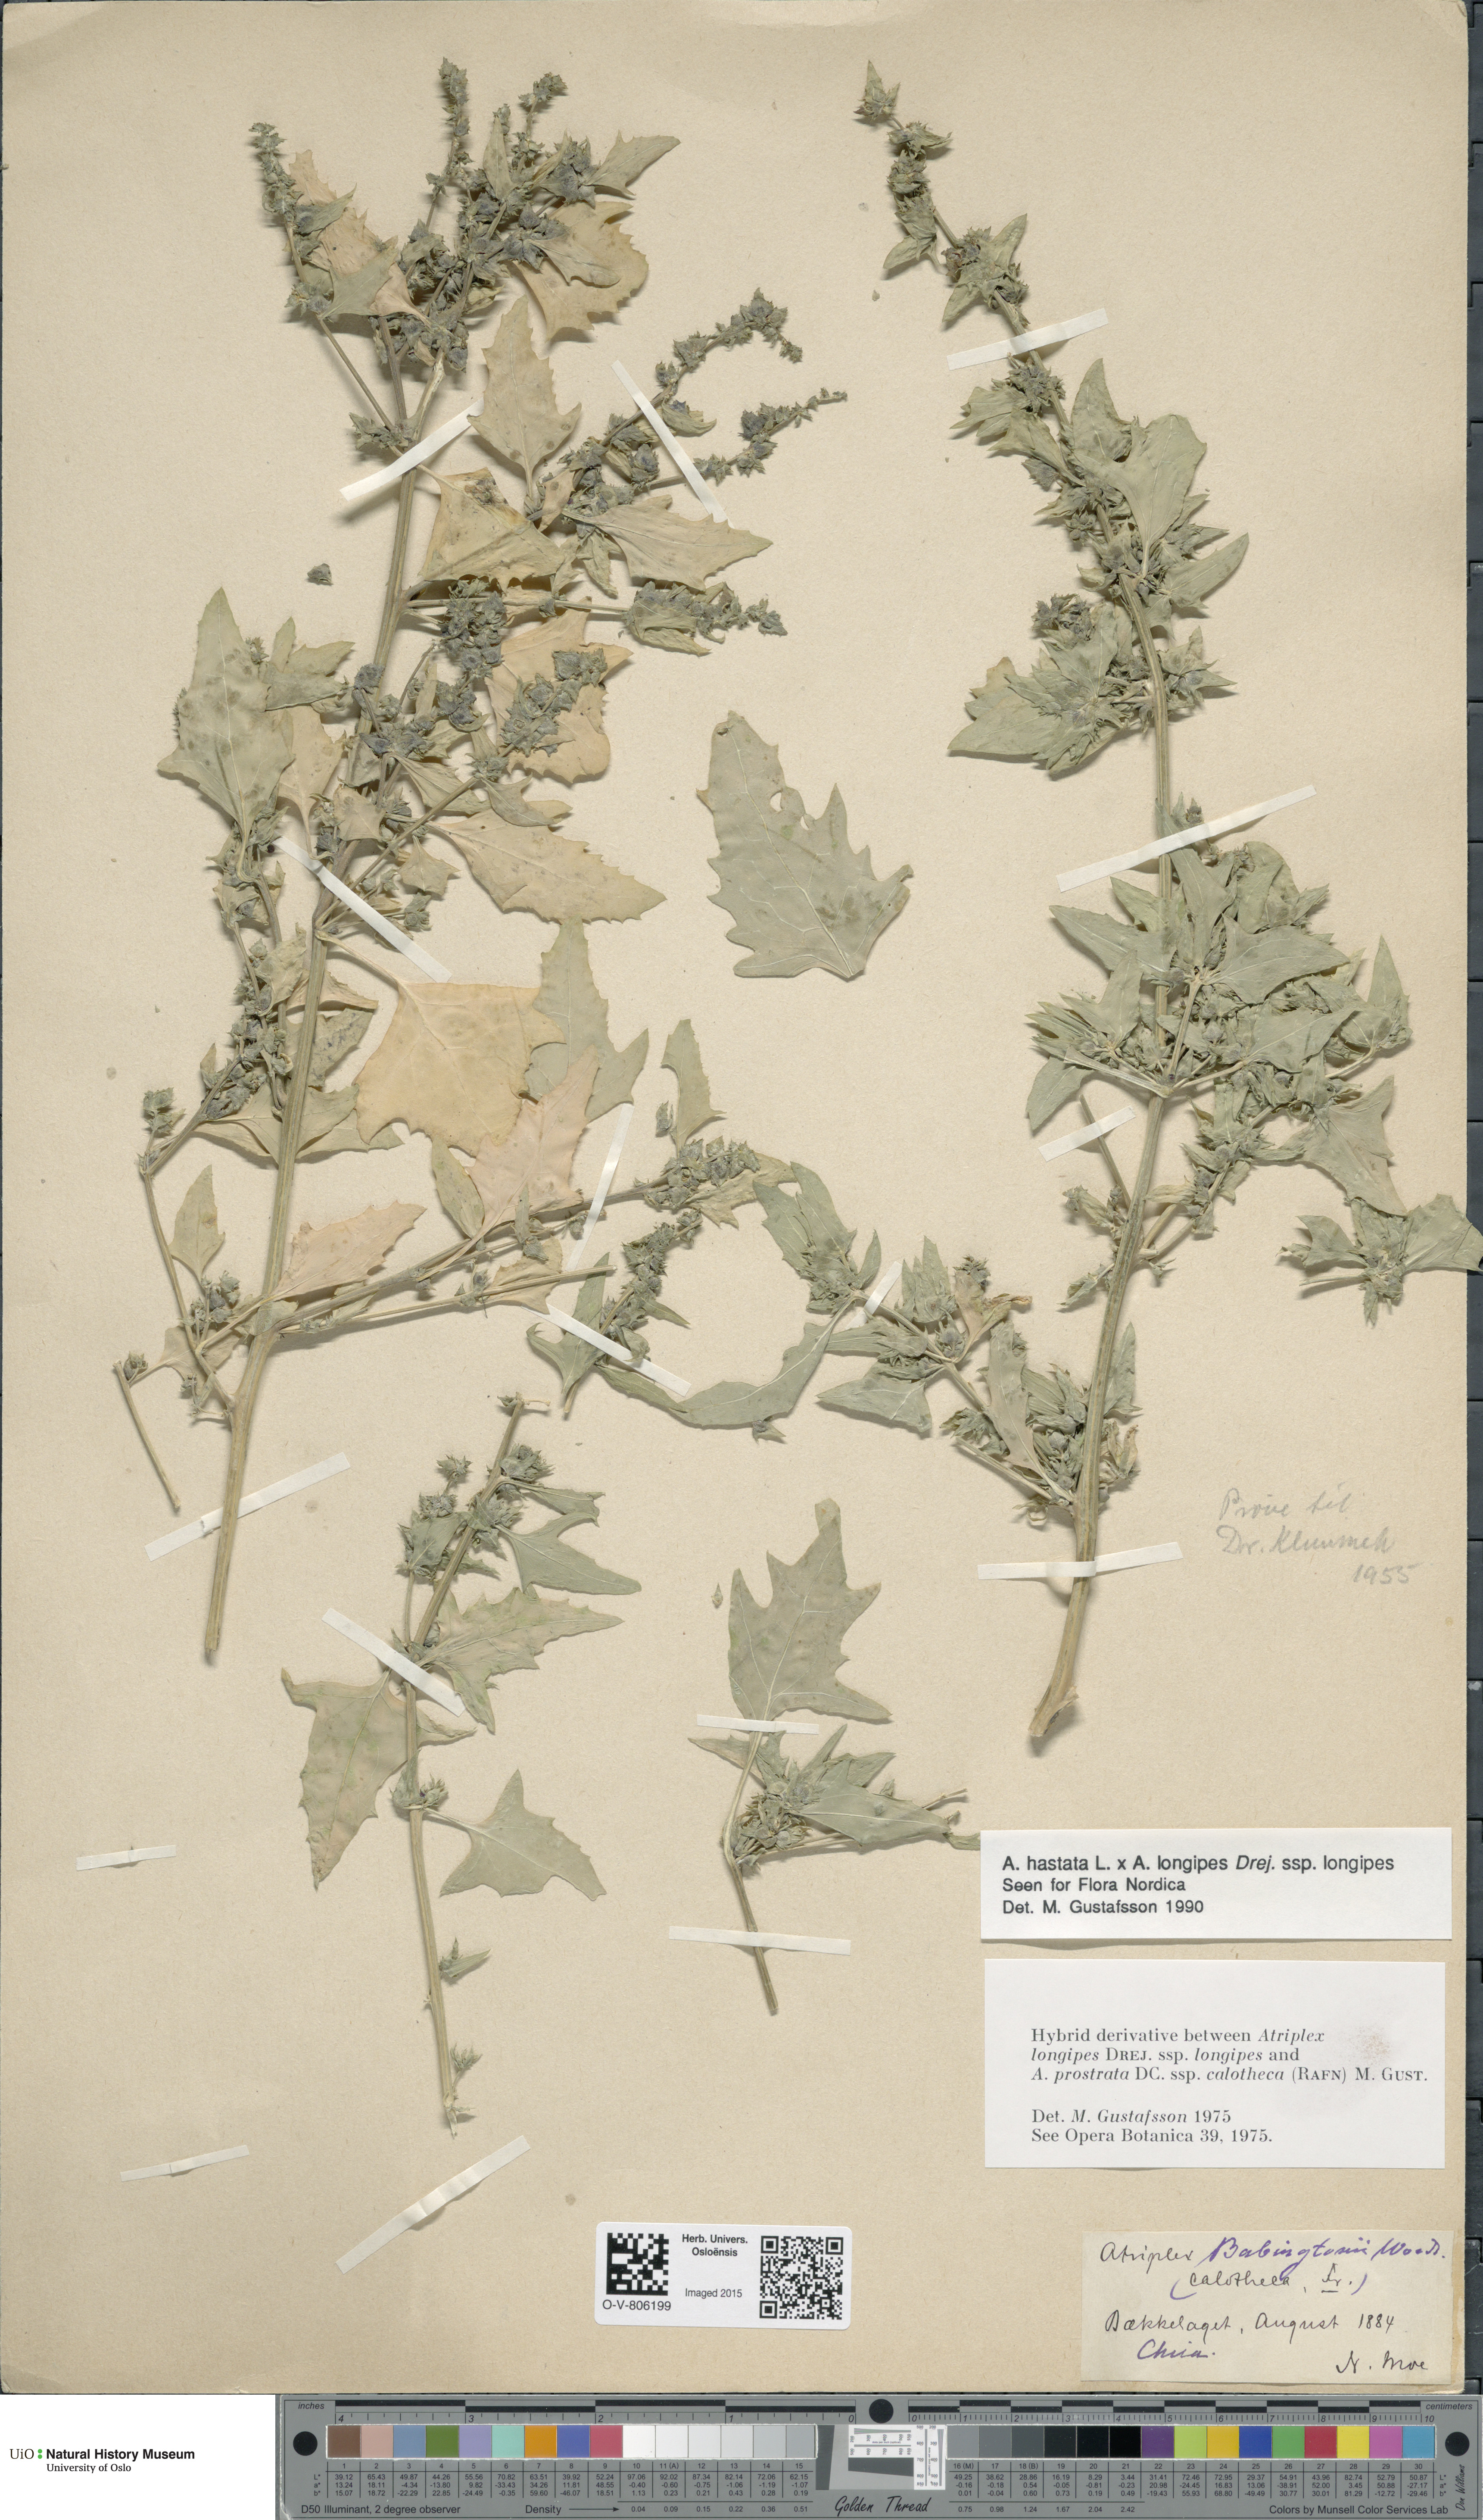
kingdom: Plantae
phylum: Tracheophyta
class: Magnoliopsida
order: Caryophyllales
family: Amaranthaceae
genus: Atriplex
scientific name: Atriplex
